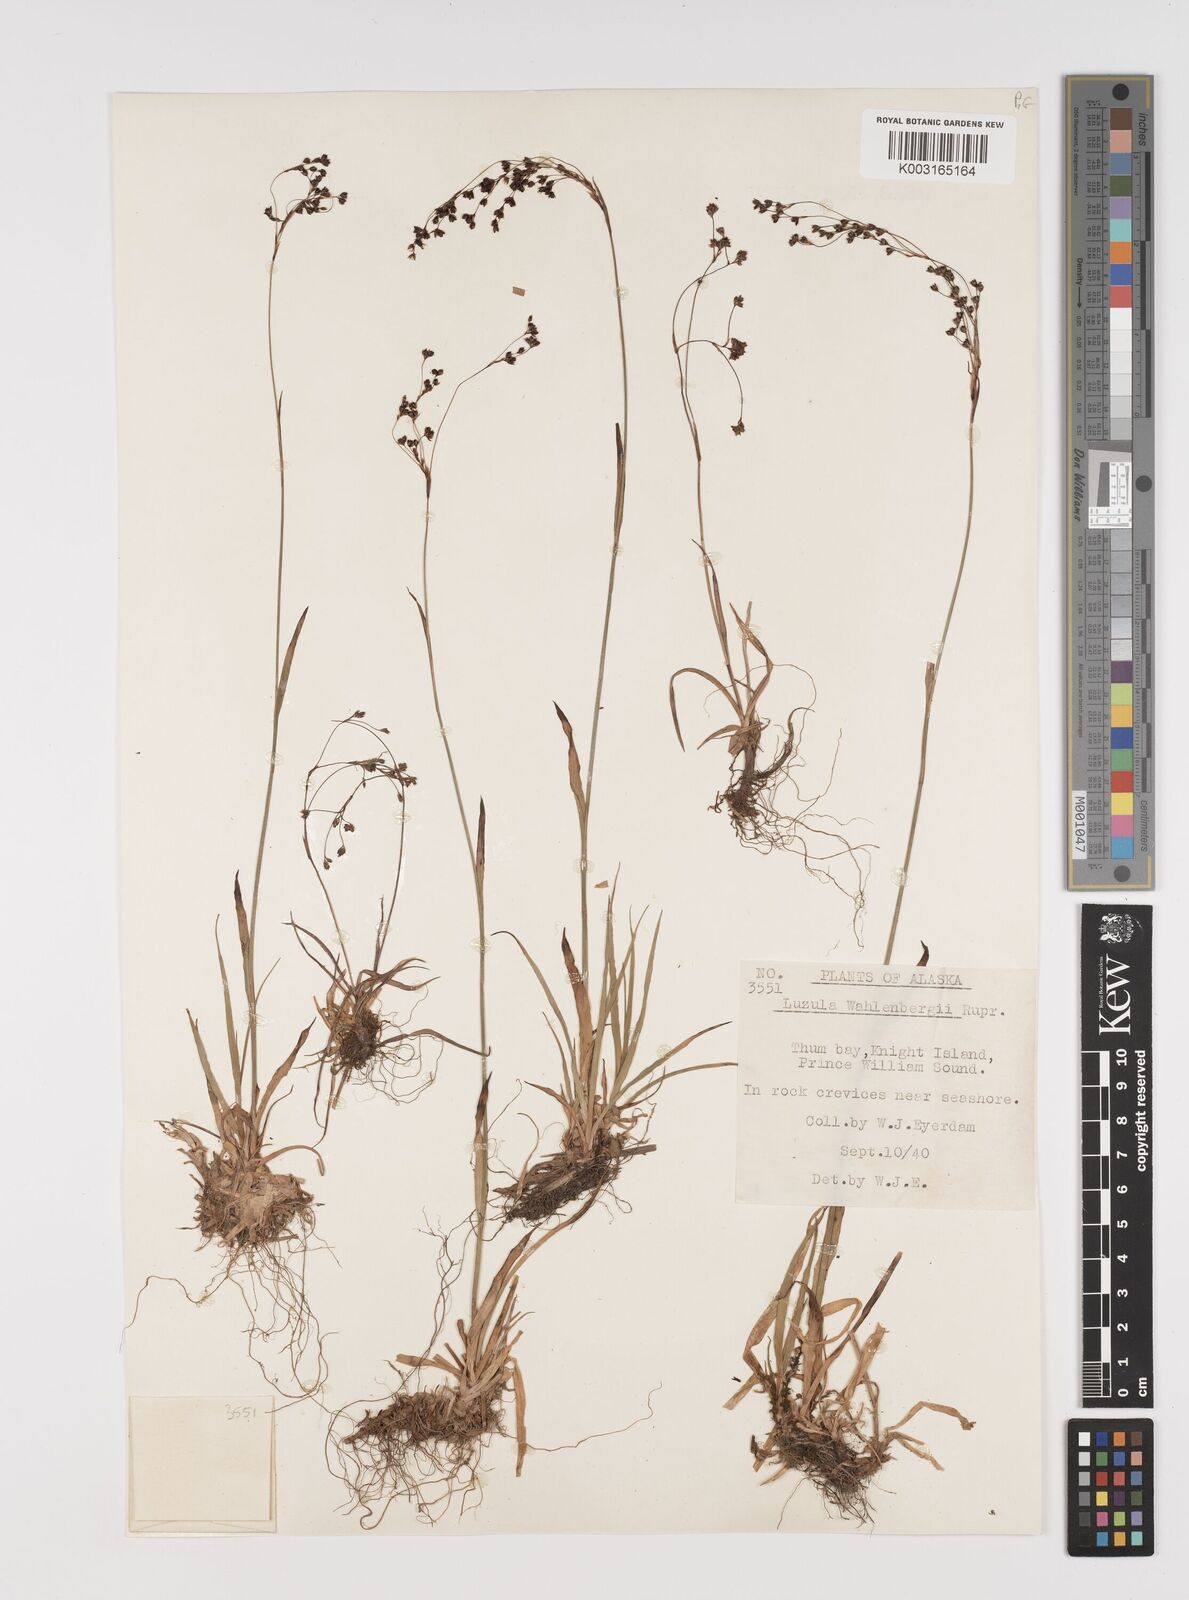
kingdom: Plantae
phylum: Tracheophyta
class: Liliopsida
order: Poales
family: Juncaceae
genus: Luzula
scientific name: Luzula wahlenbergii
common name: Wahlenberg's wood-rush
